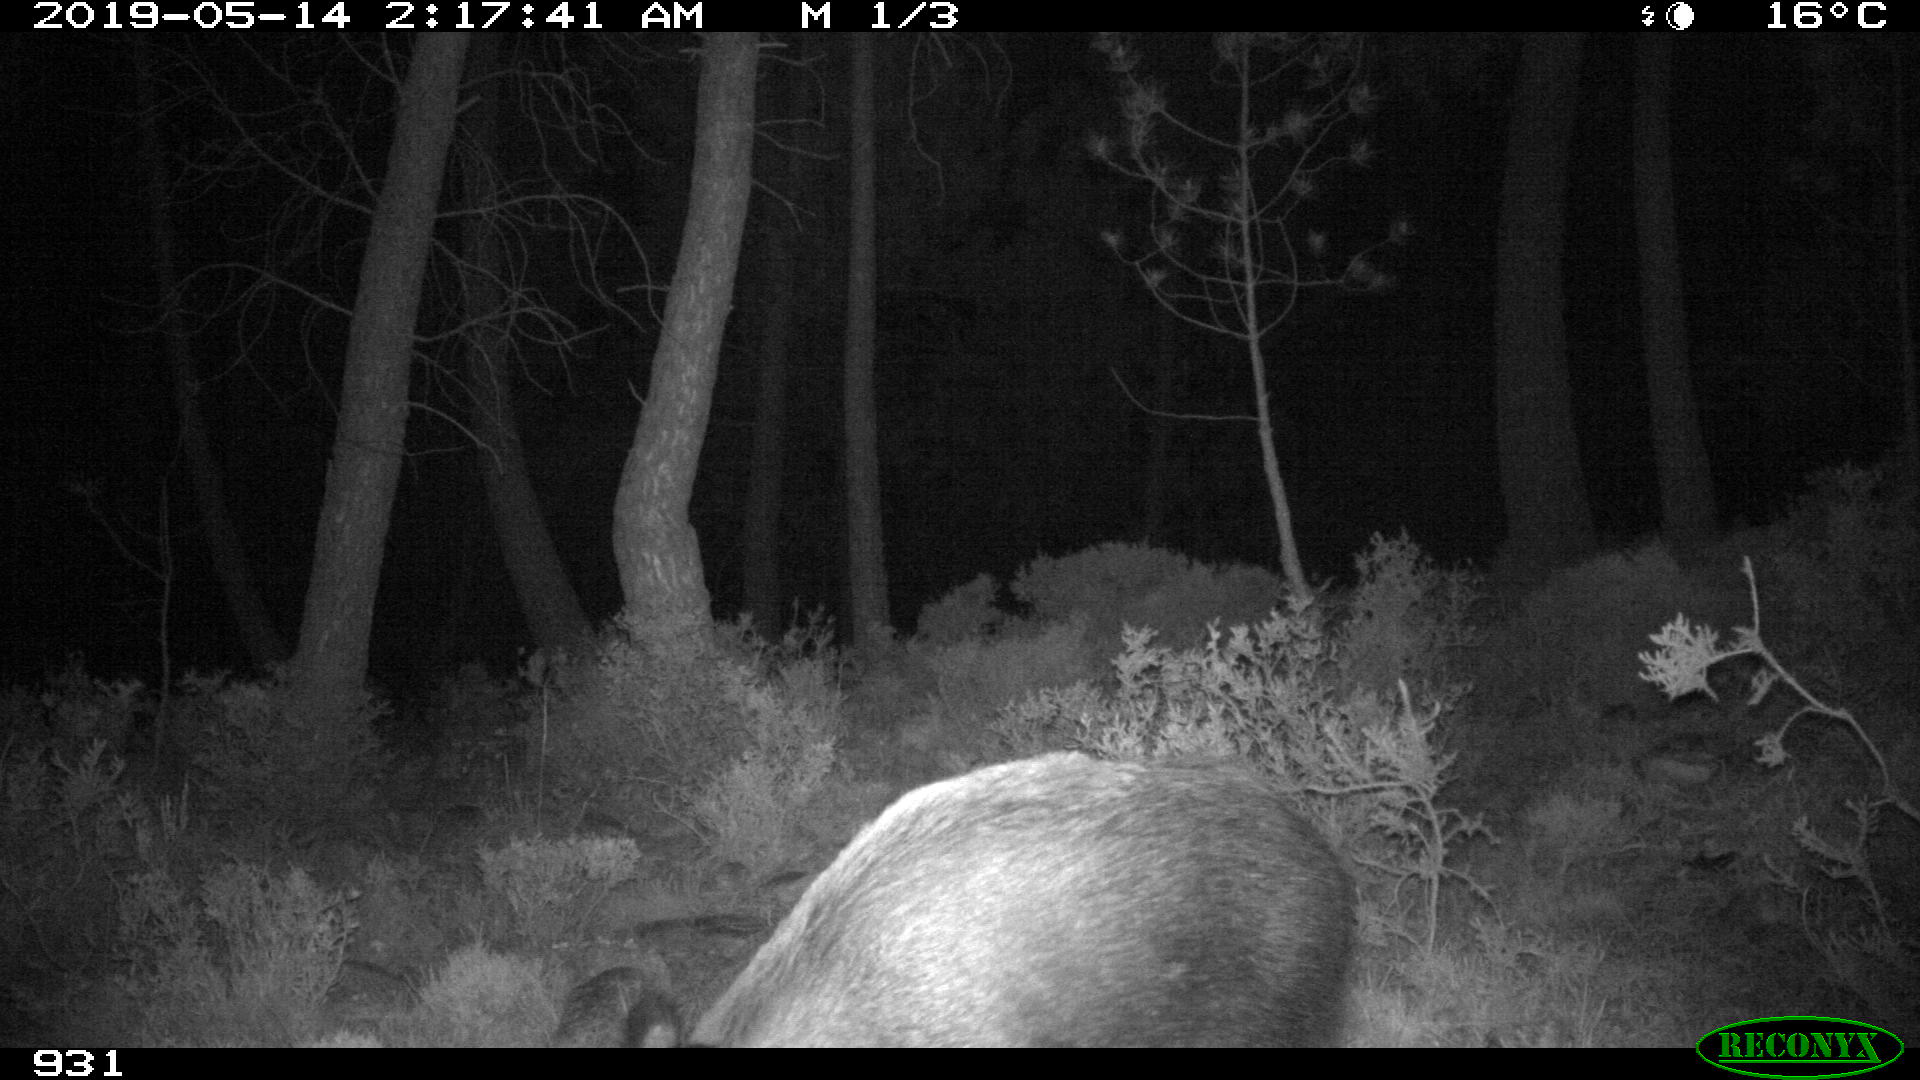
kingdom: Animalia
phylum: Chordata
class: Mammalia
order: Artiodactyla
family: Suidae
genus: Sus
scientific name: Sus scrofa
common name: Wild boar
